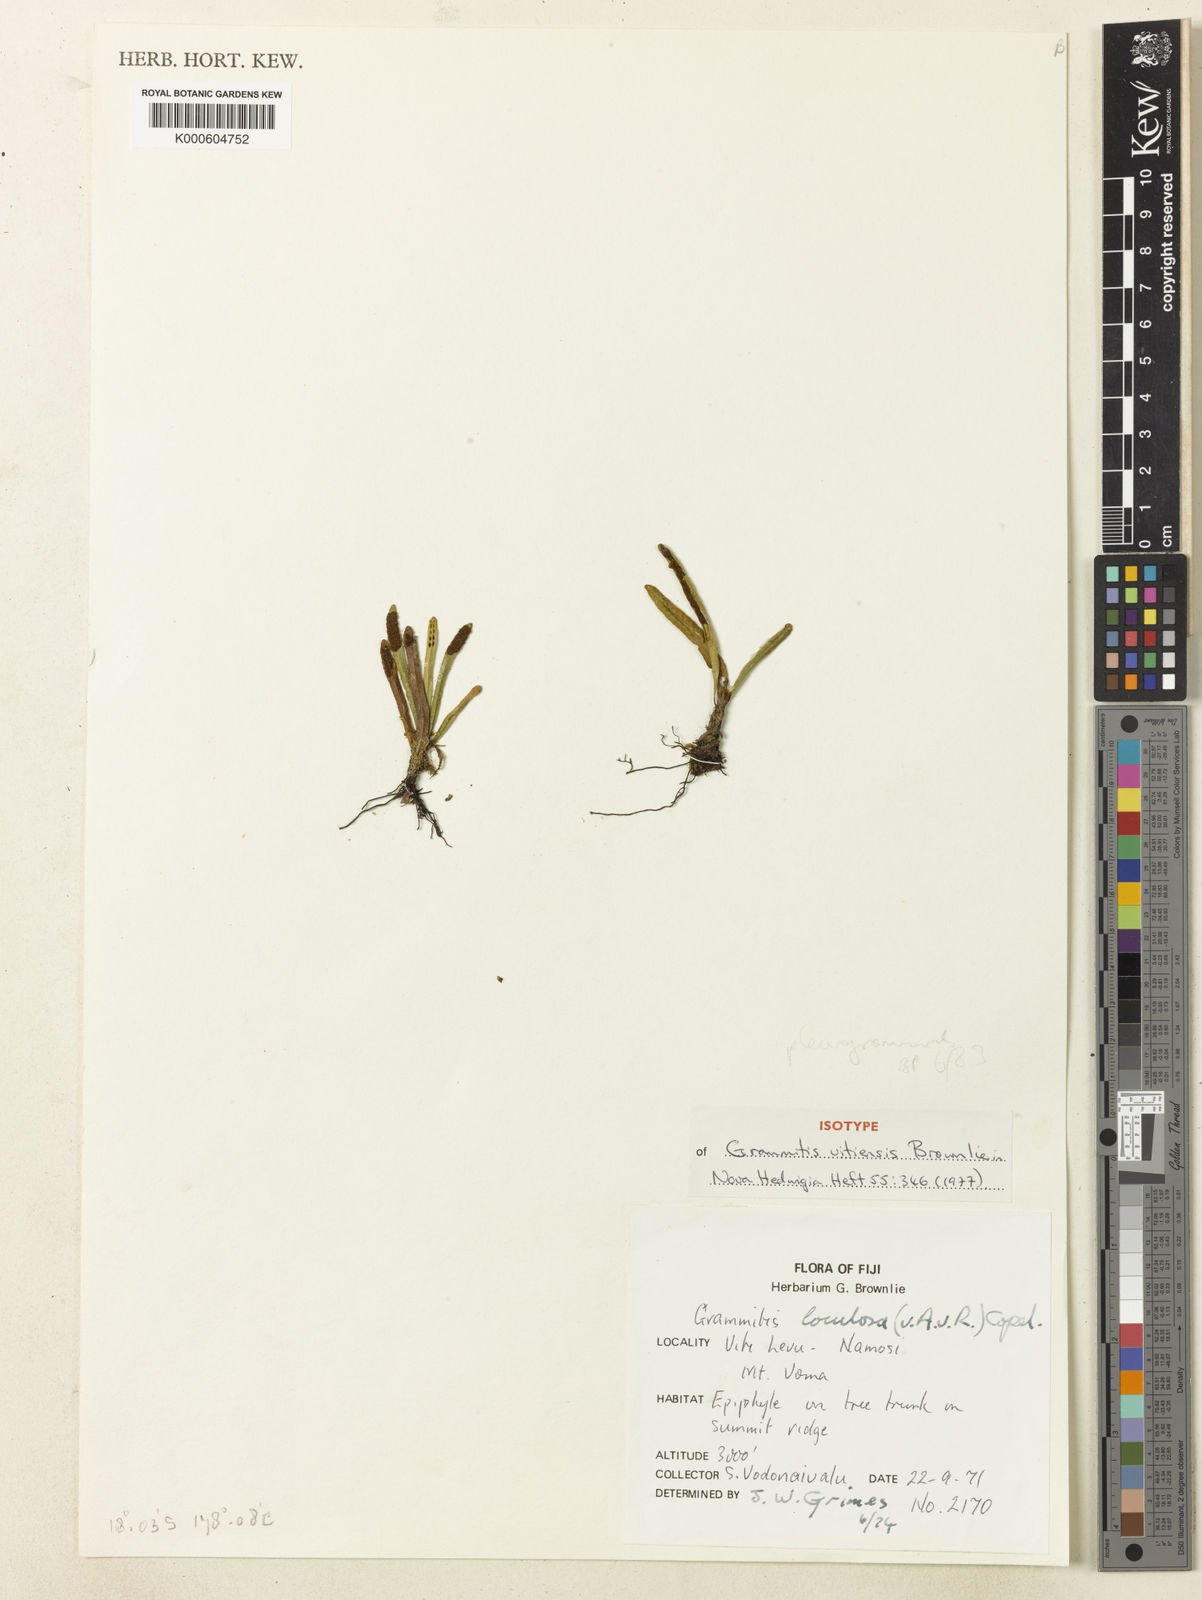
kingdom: Plantae
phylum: Tracheophyta
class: Polypodiopsida
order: Polypodiales
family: Polypodiaceae
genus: Oreogrammitis
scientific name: Oreogrammitis pleurogrammoides
